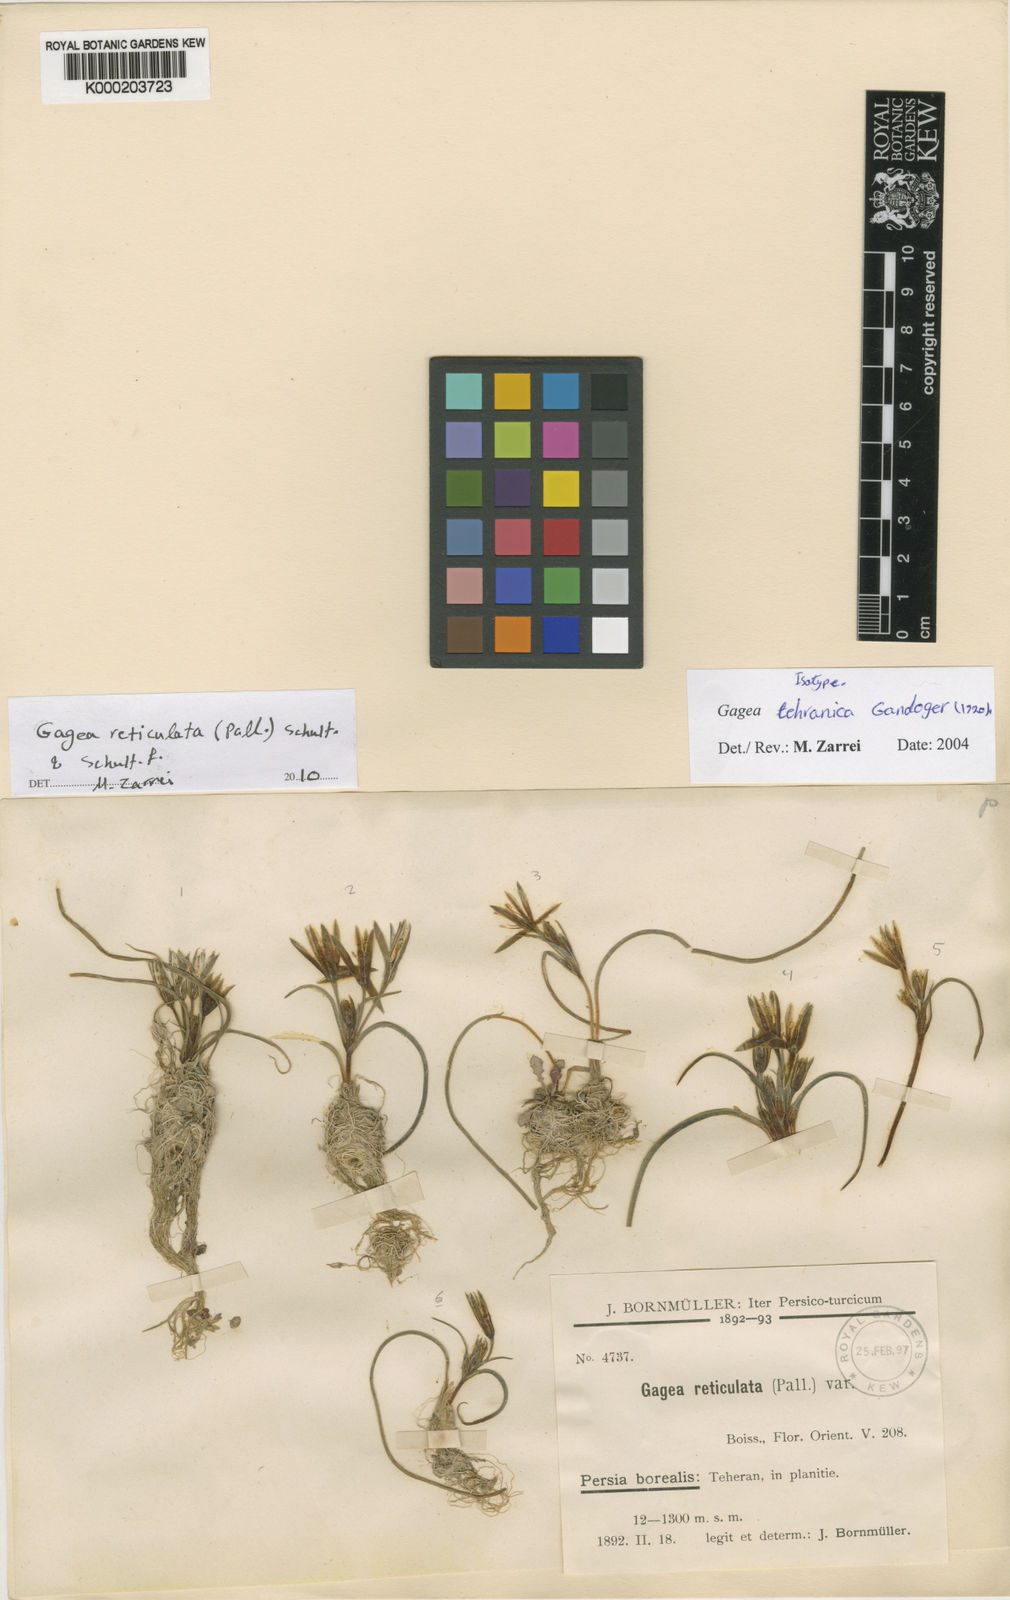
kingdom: Plantae
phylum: Tracheophyta
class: Liliopsida
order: Liliales
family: Liliaceae
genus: Gagea
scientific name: Gagea reticulata
